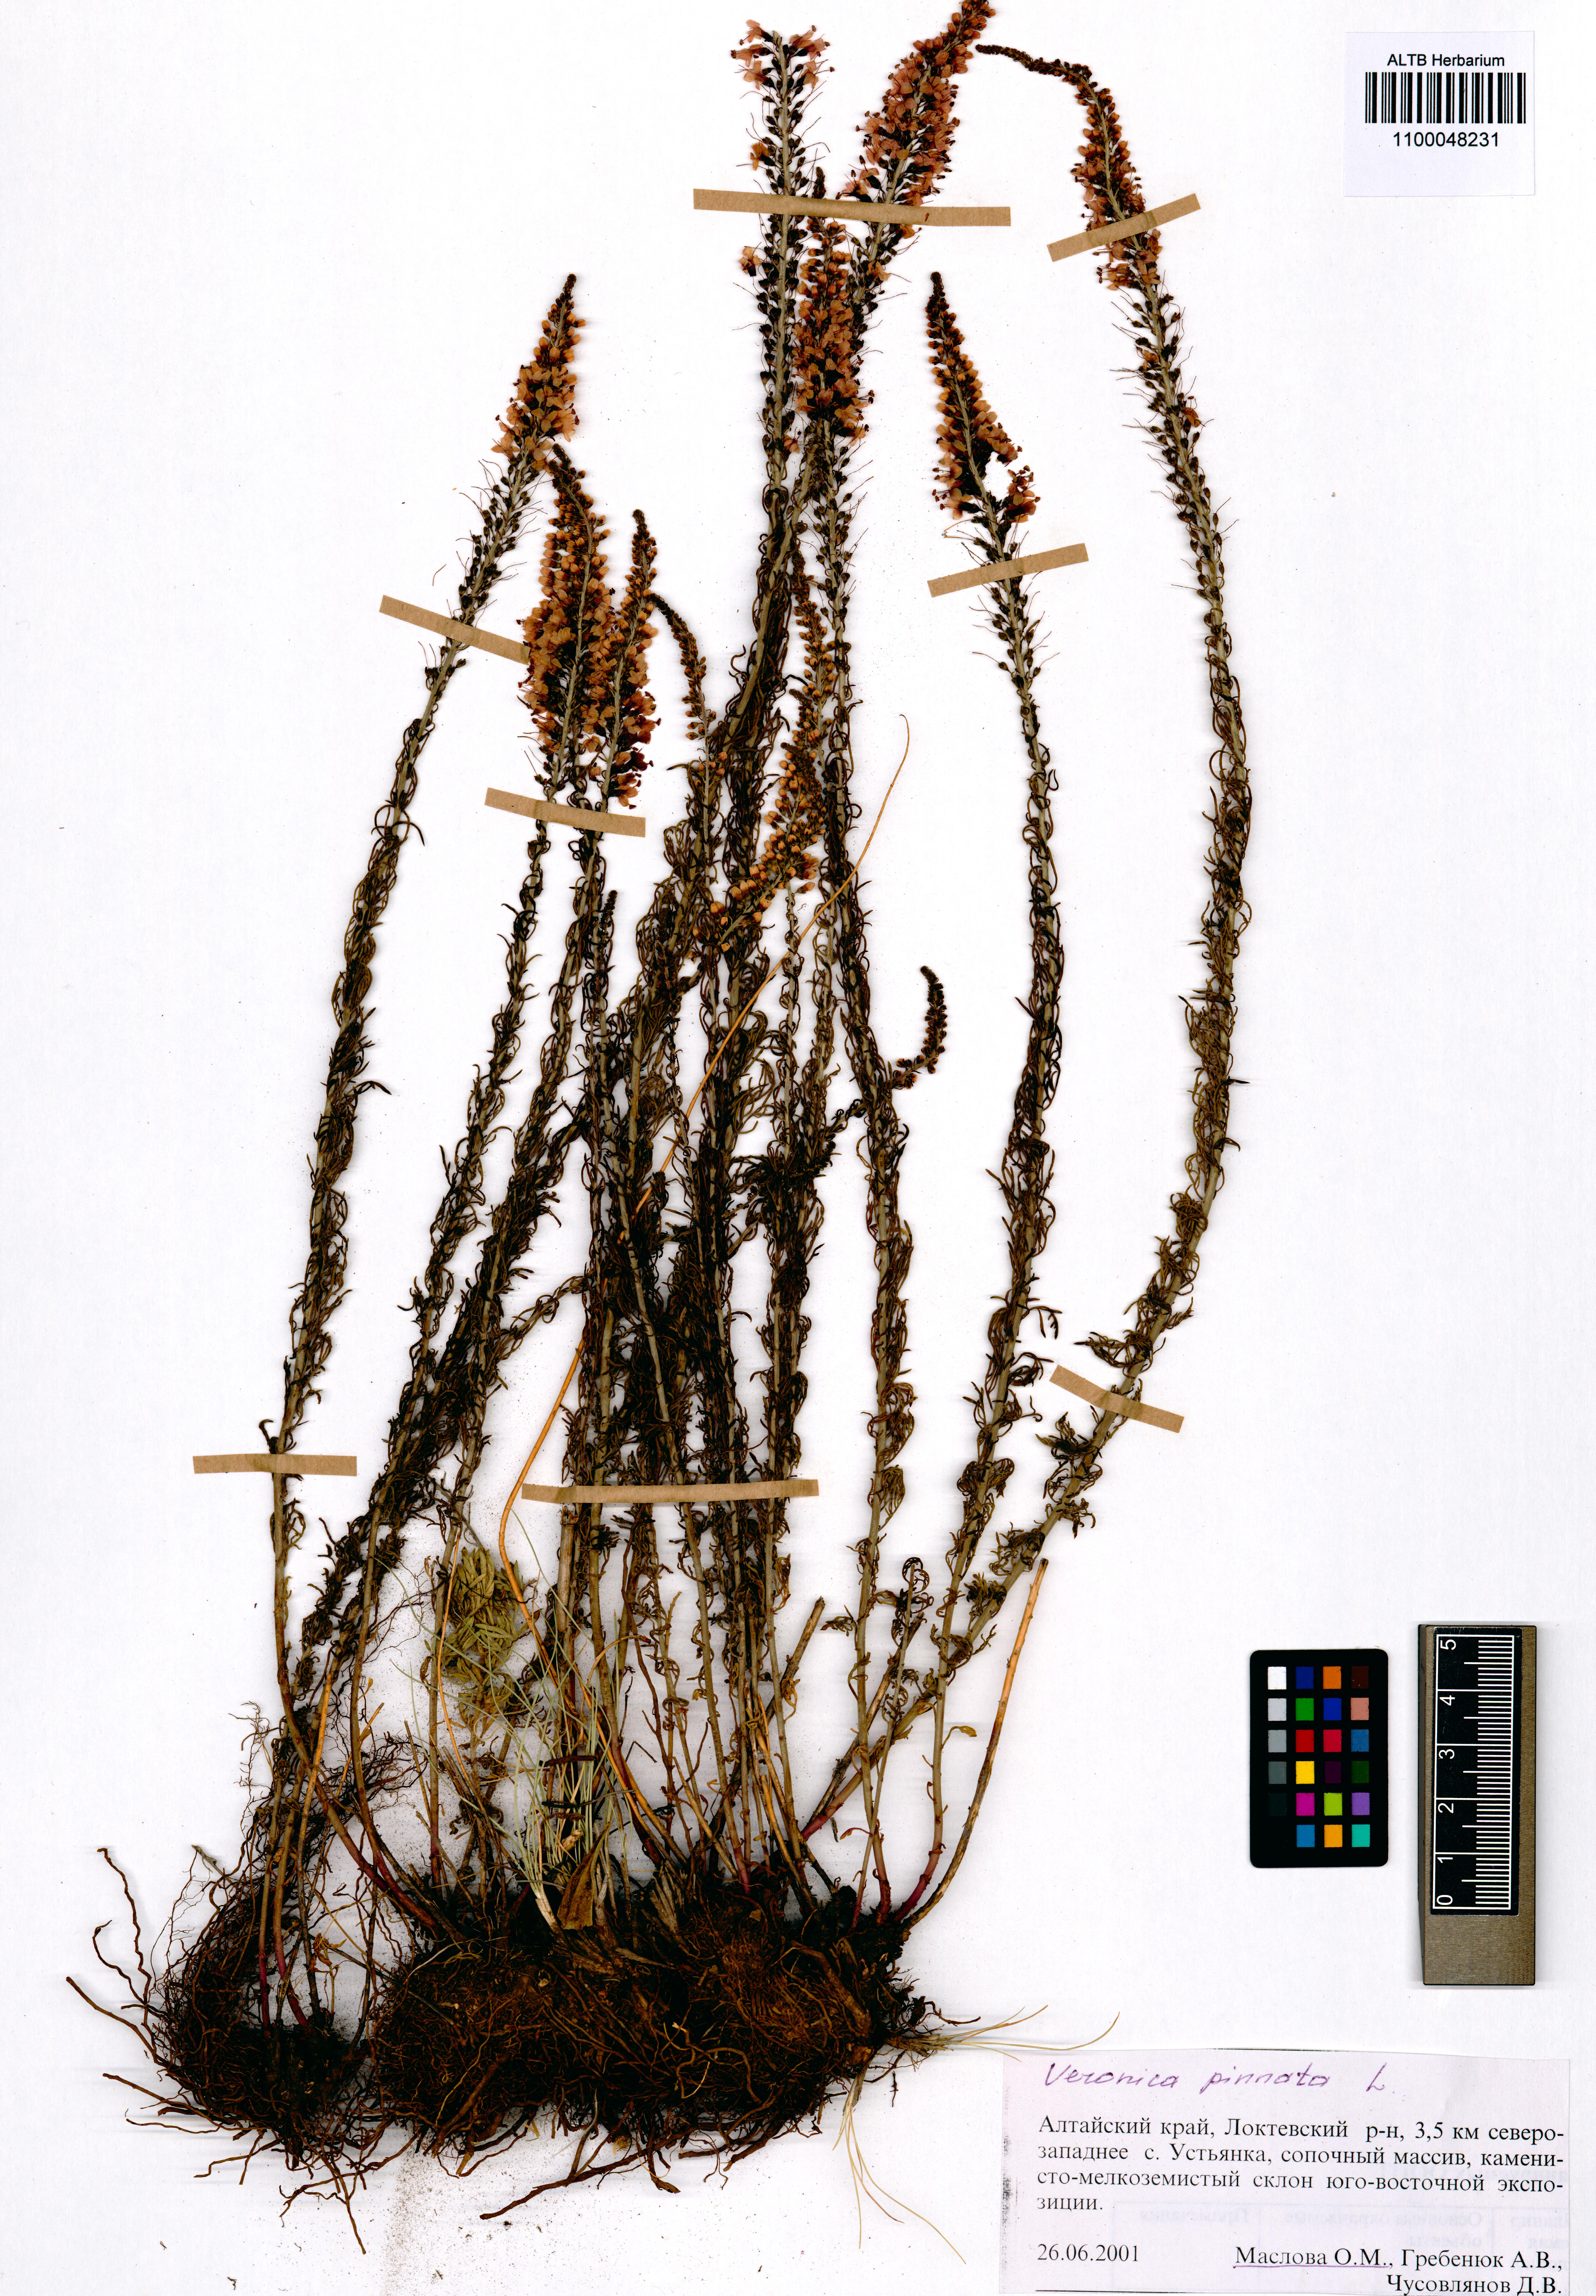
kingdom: Plantae
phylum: Tracheophyta
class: Magnoliopsida
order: Lamiales
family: Plantaginaceae
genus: Veronica
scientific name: Veronica pinnata
